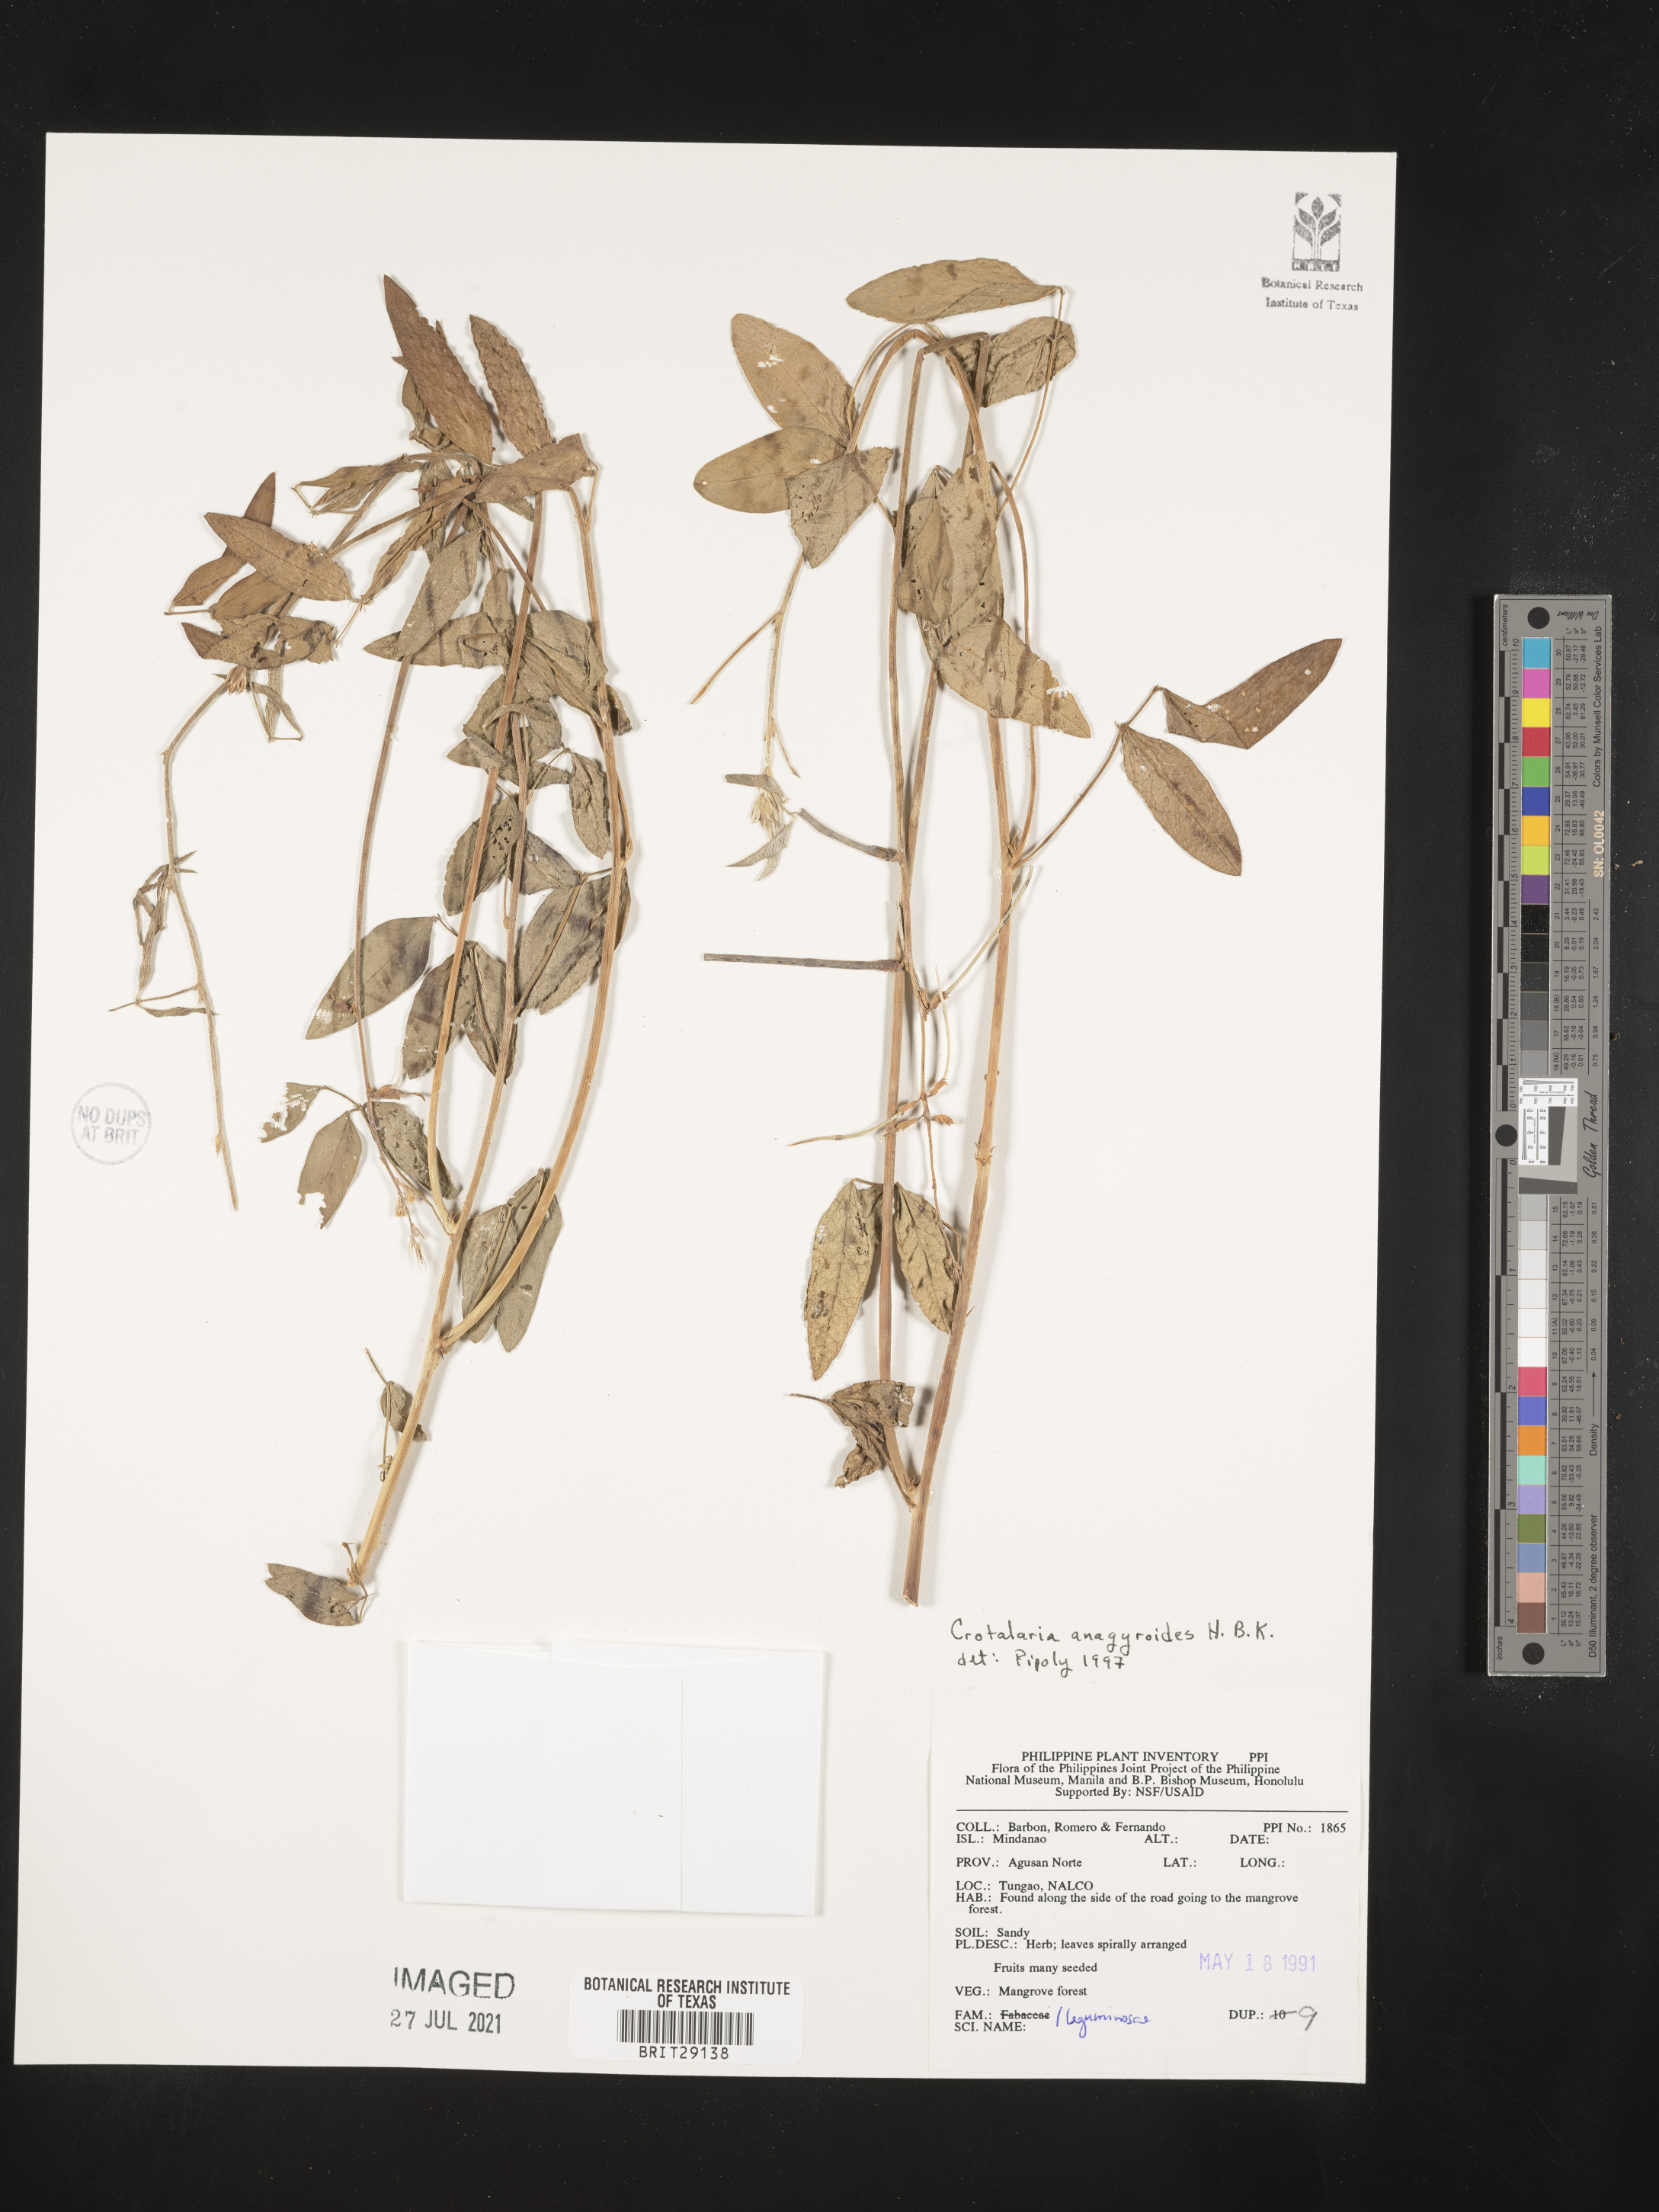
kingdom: Plantae
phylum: Tracheophyta
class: Magnoliopsida
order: Fabales
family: Fabaceae
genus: Crotalaria
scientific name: Crotalaria micans
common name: Caracas rattlebox
